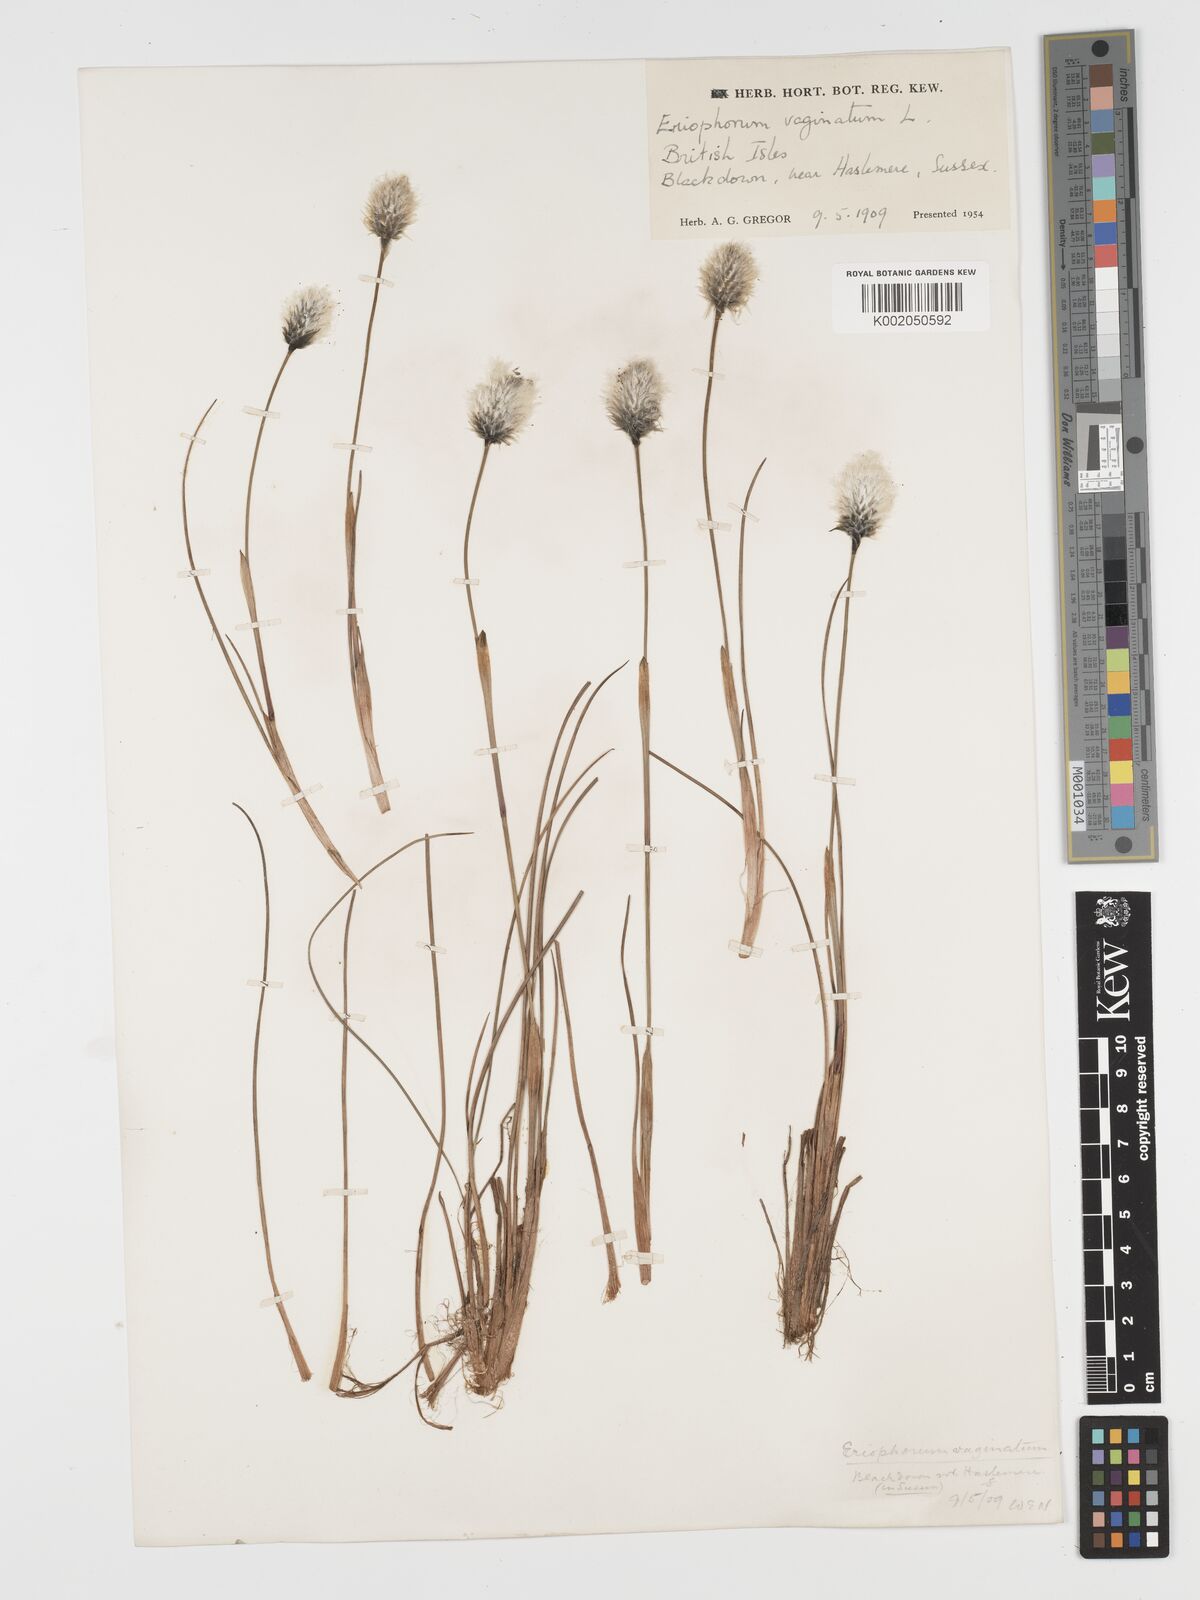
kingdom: Plantae
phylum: Tracheophyta
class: Liliopsida
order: Poales
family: Cyperaceae
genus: Eriophorum
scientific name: Eriophorum vaginatum
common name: Hare's-tail cottongrass
